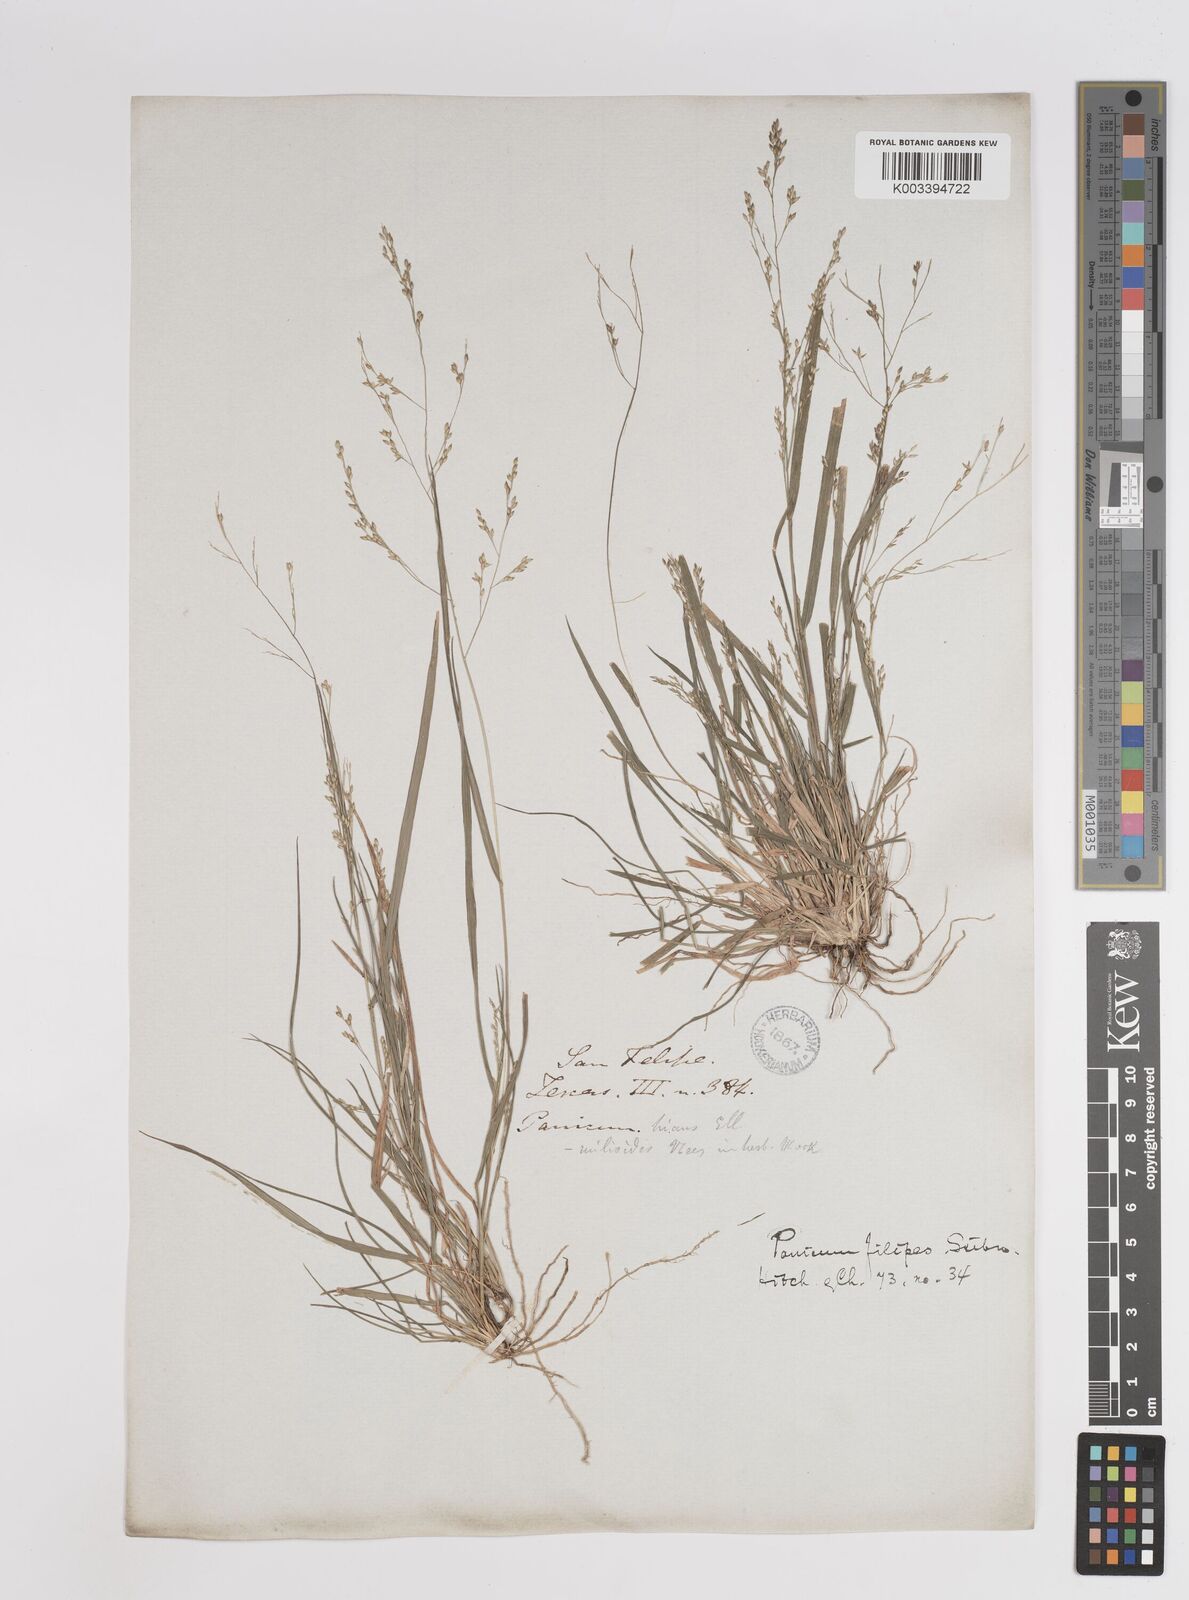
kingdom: Plantae
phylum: Tracheophyta
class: Liliopsida
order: Poales
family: Poaceae
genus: Panicum
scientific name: Panicum hallii
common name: Hall's witchgrass
